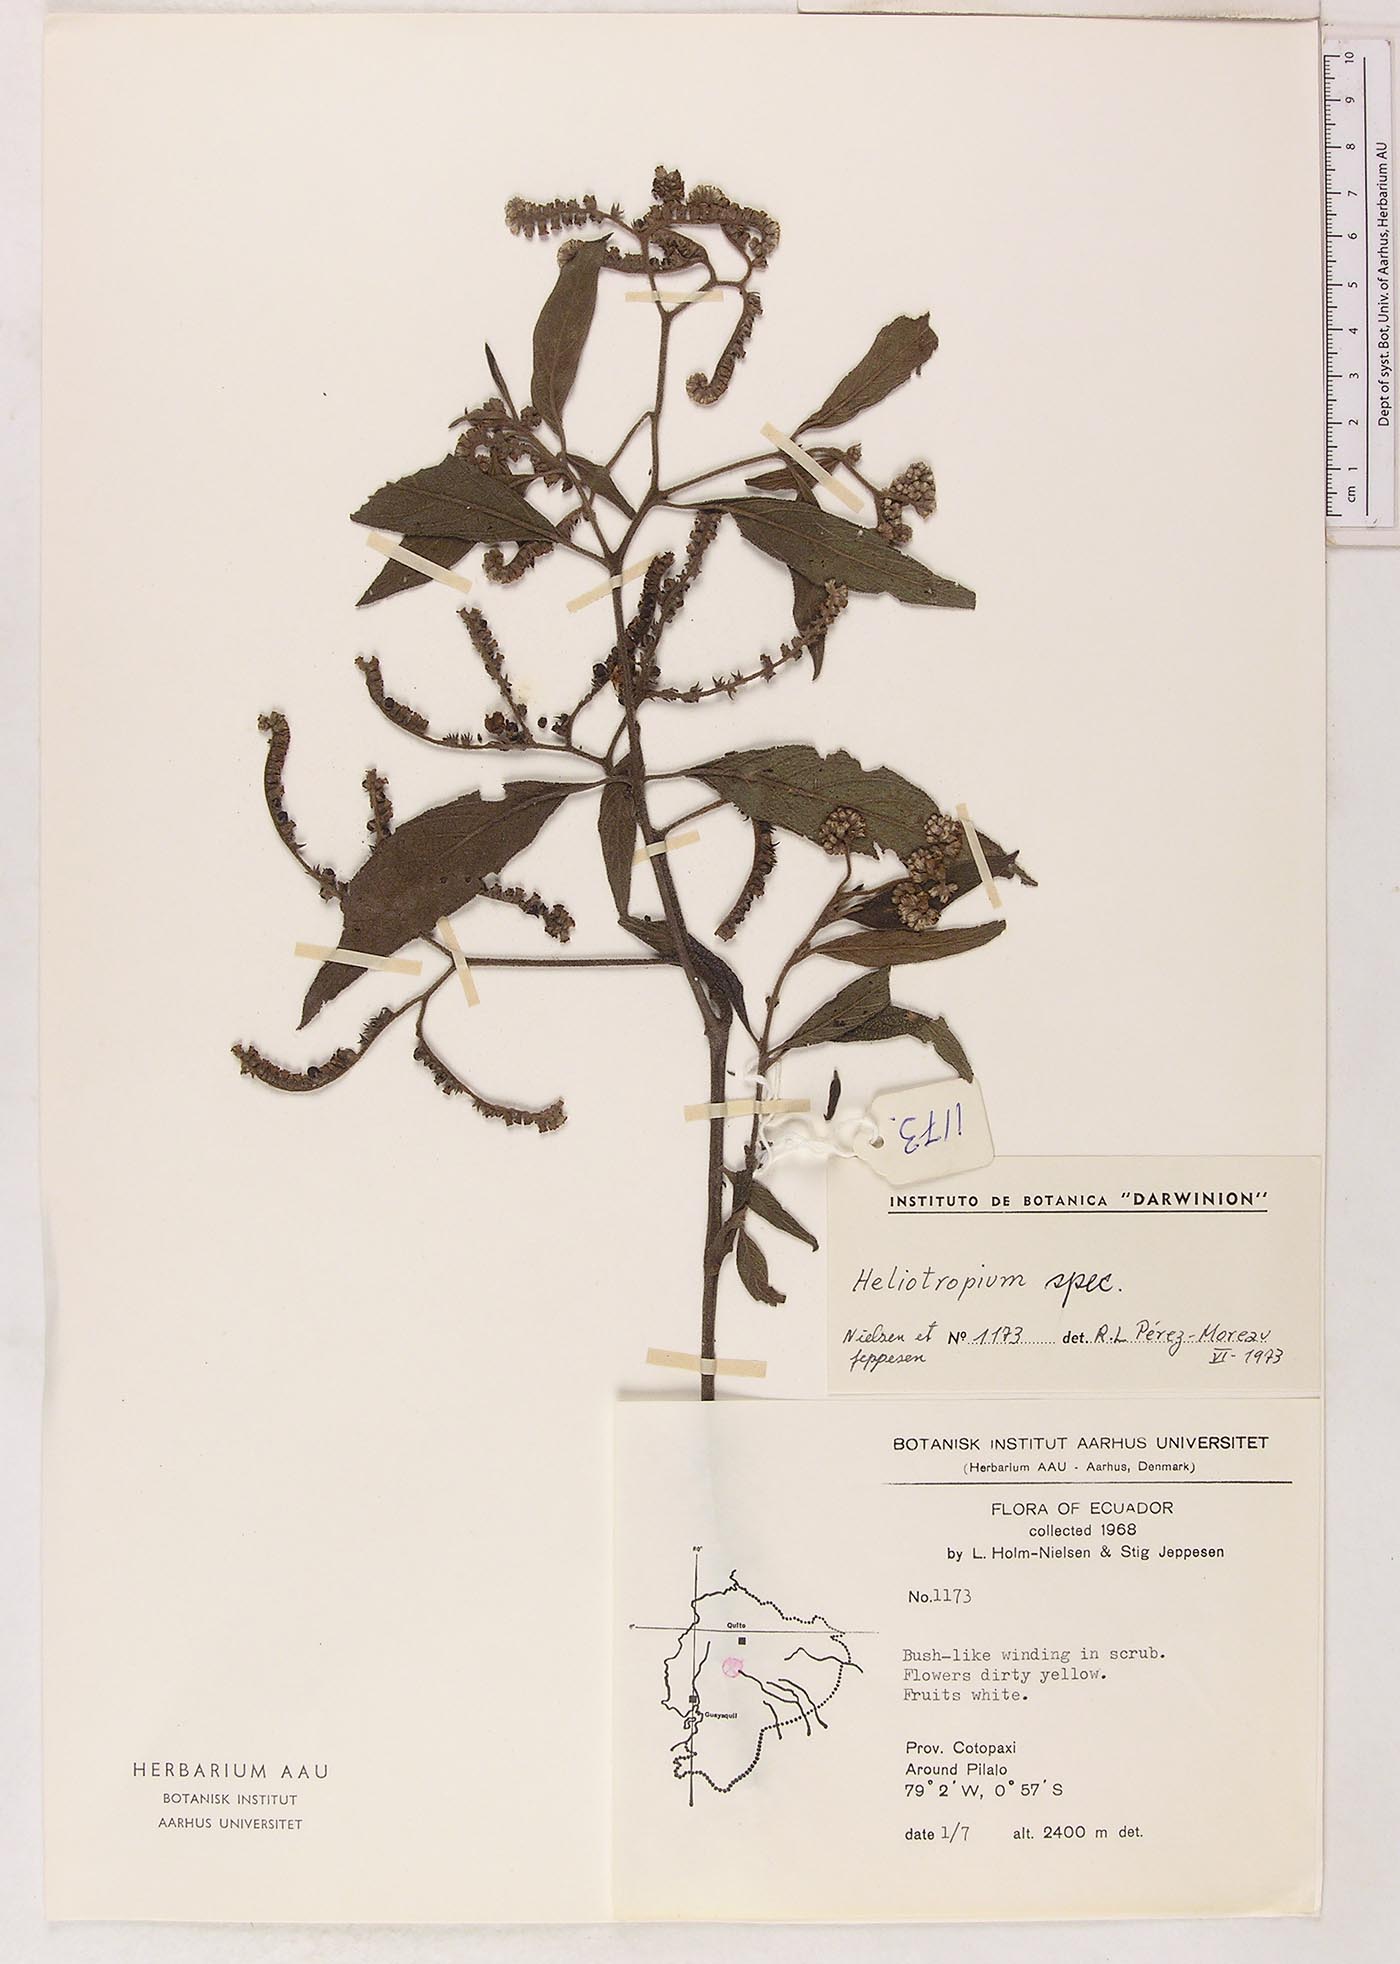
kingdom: Plantae
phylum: Tracheophyta
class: Magnoliopsida
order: Boraginales
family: Heliotropiaceae
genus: Heliotropium
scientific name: Heliotropium brevilobatum
